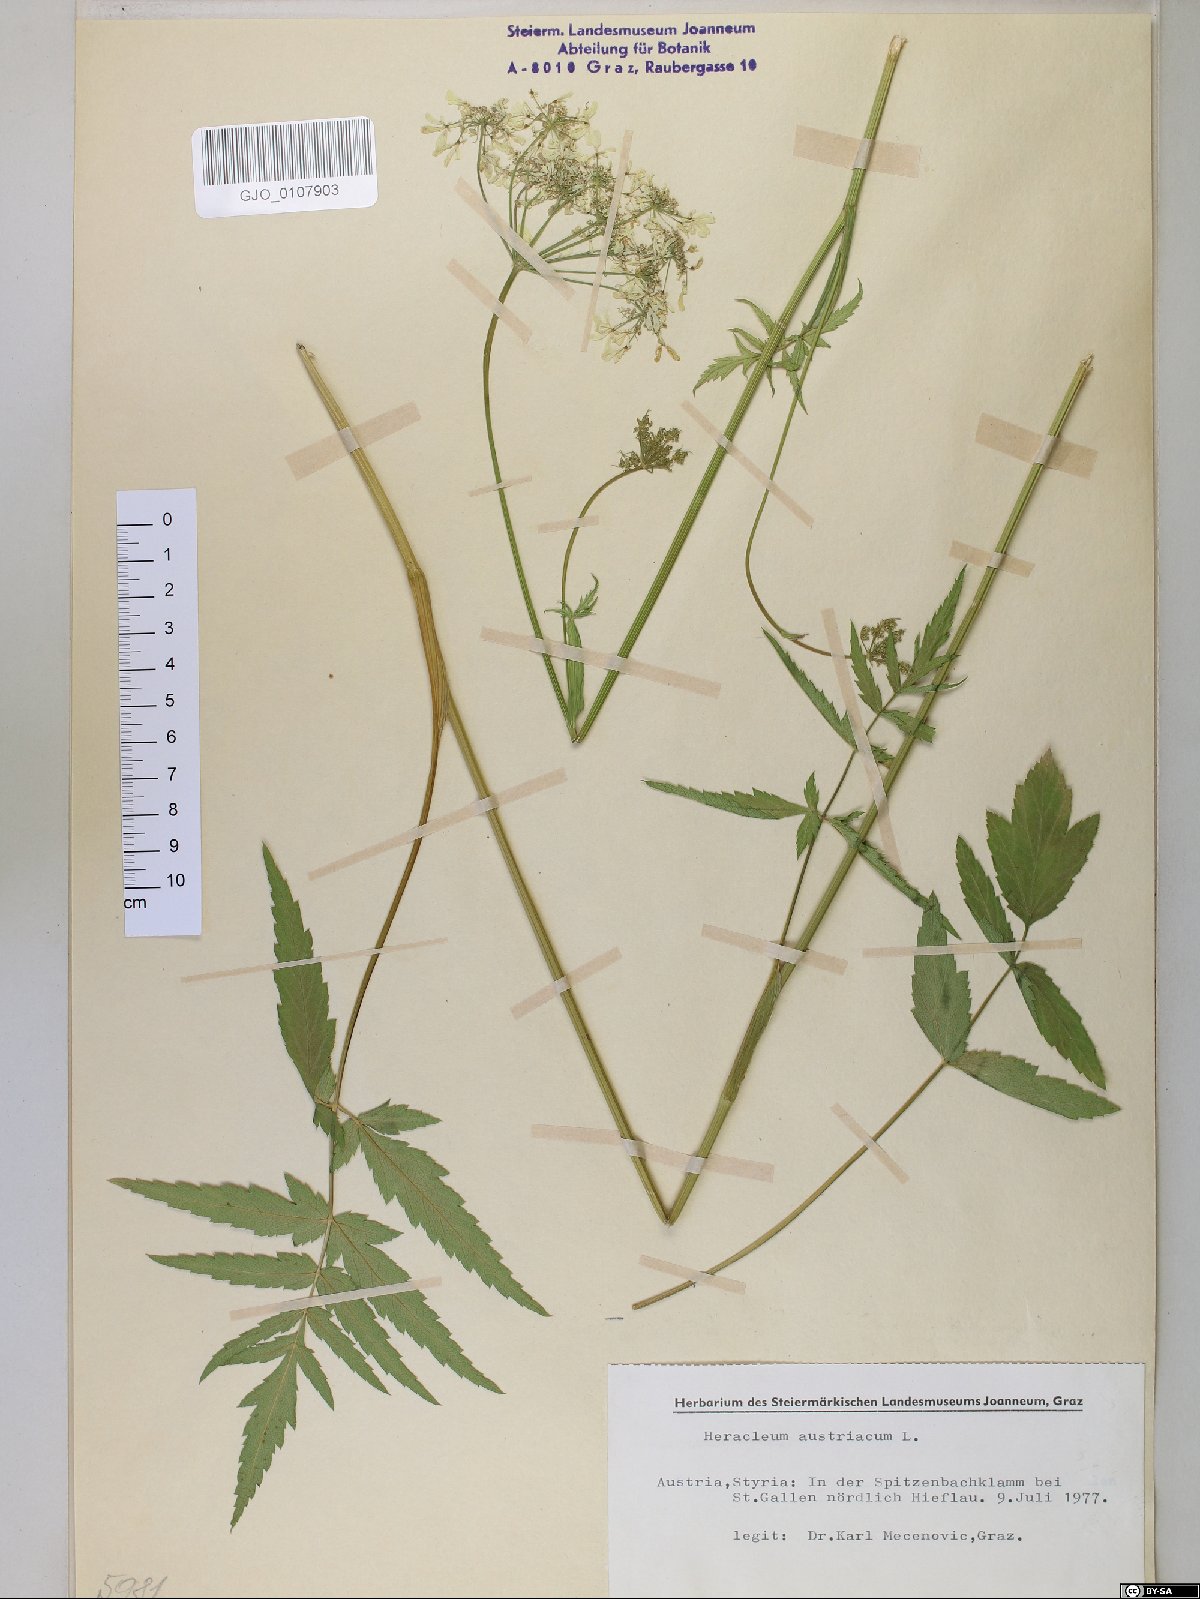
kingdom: Plantae
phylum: Tracheophyta
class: Magnoliopsida
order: Apiales
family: Apiaceae
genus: Heracleum
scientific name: Heracleum austriacum
